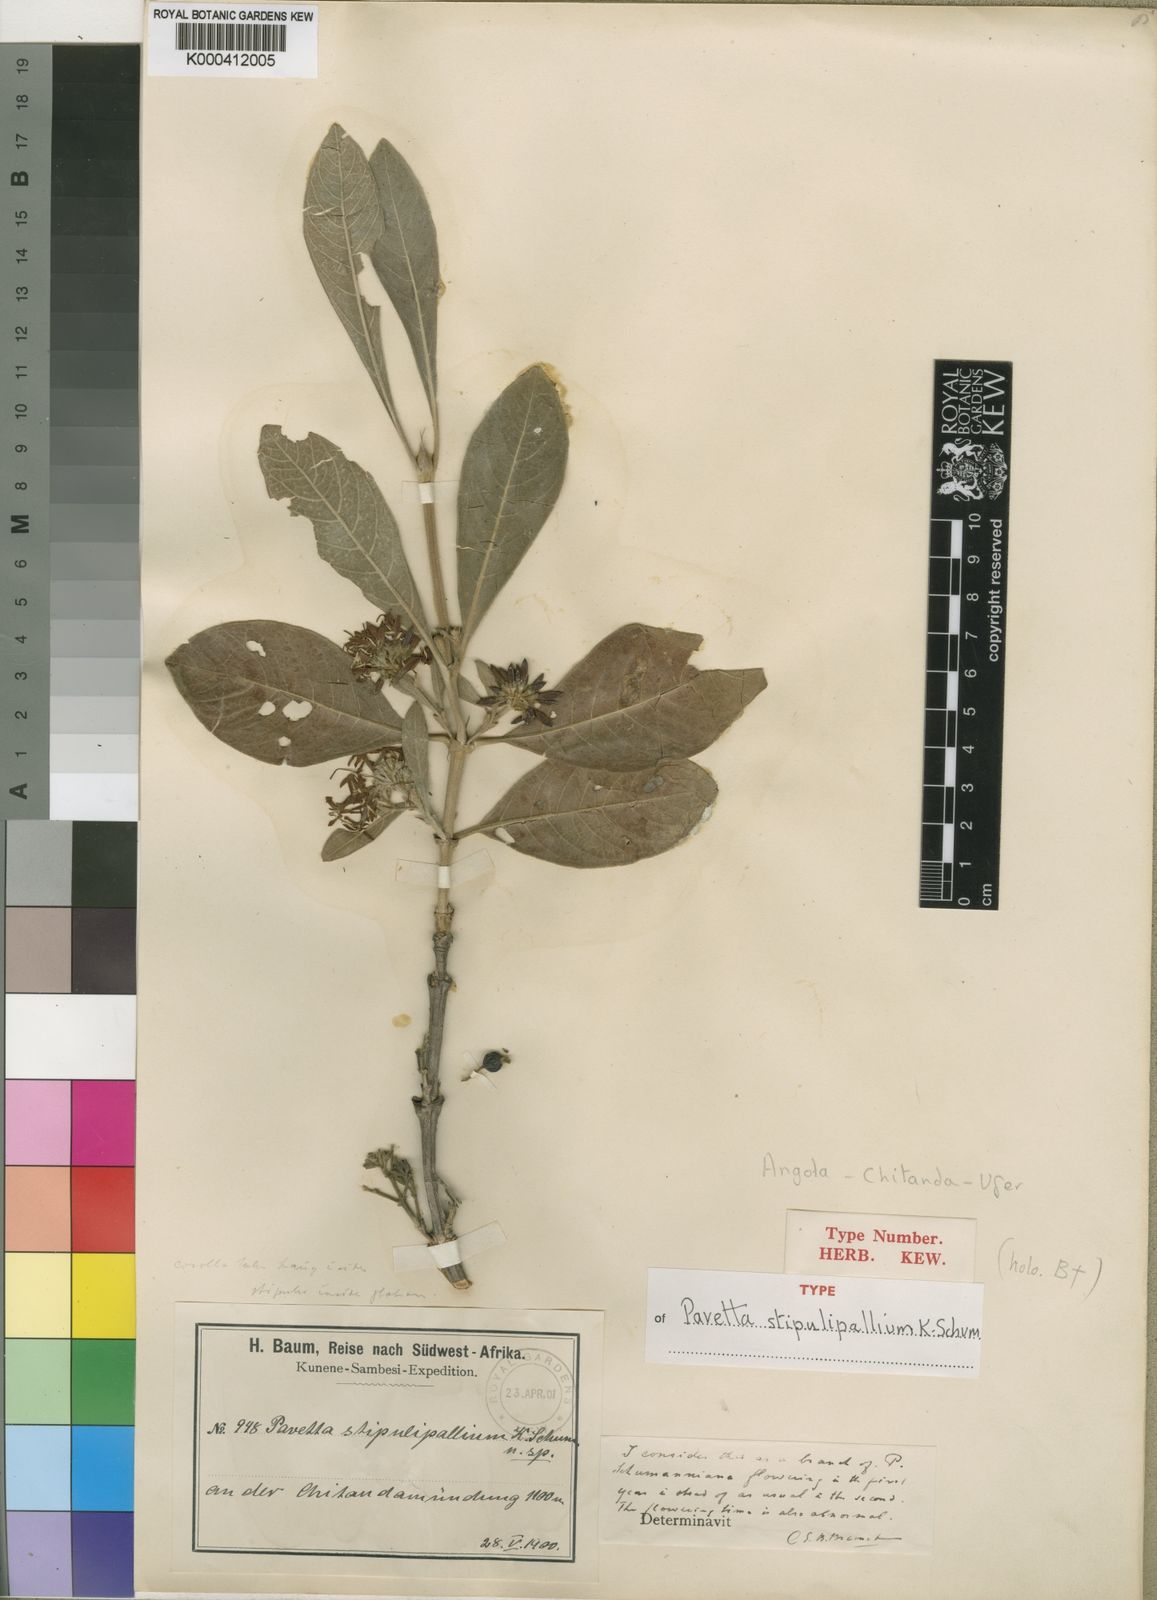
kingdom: Plantae
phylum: Tracheophyta
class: Magnoliopsida
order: Gentianales
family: Rubiaceae
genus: Pavetta
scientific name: Pavetta schumanniana
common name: Poisonous bride's-bush
